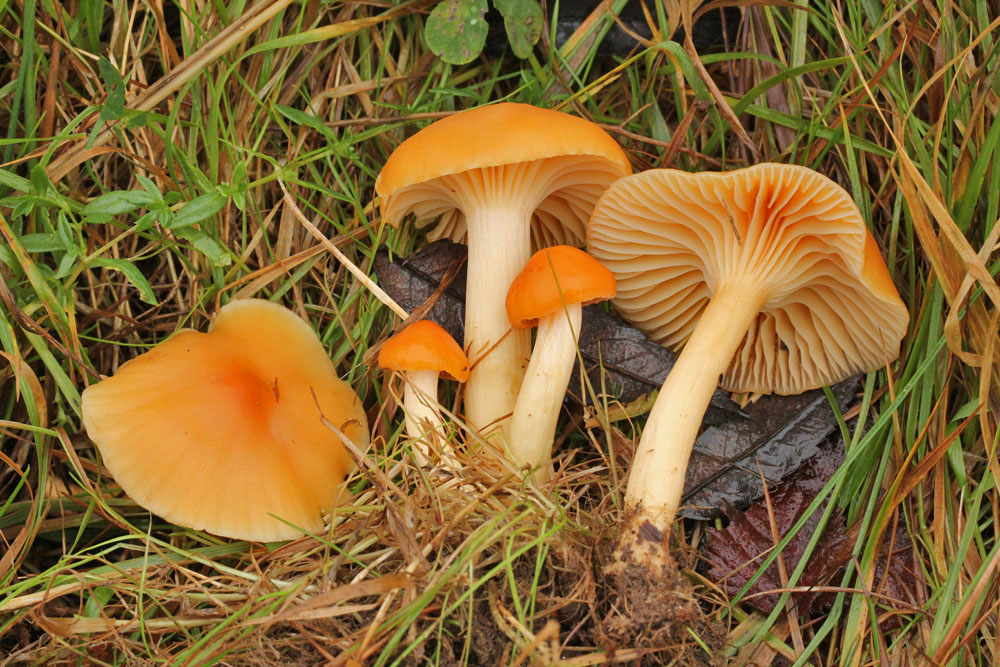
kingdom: Fungi
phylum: Basidiomycota
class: Agaricomycetes
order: Agaricales
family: Hygrophoraceae
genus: Cuphophyllus
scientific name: Cuphophyllus pratensis
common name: eng-vokshat
